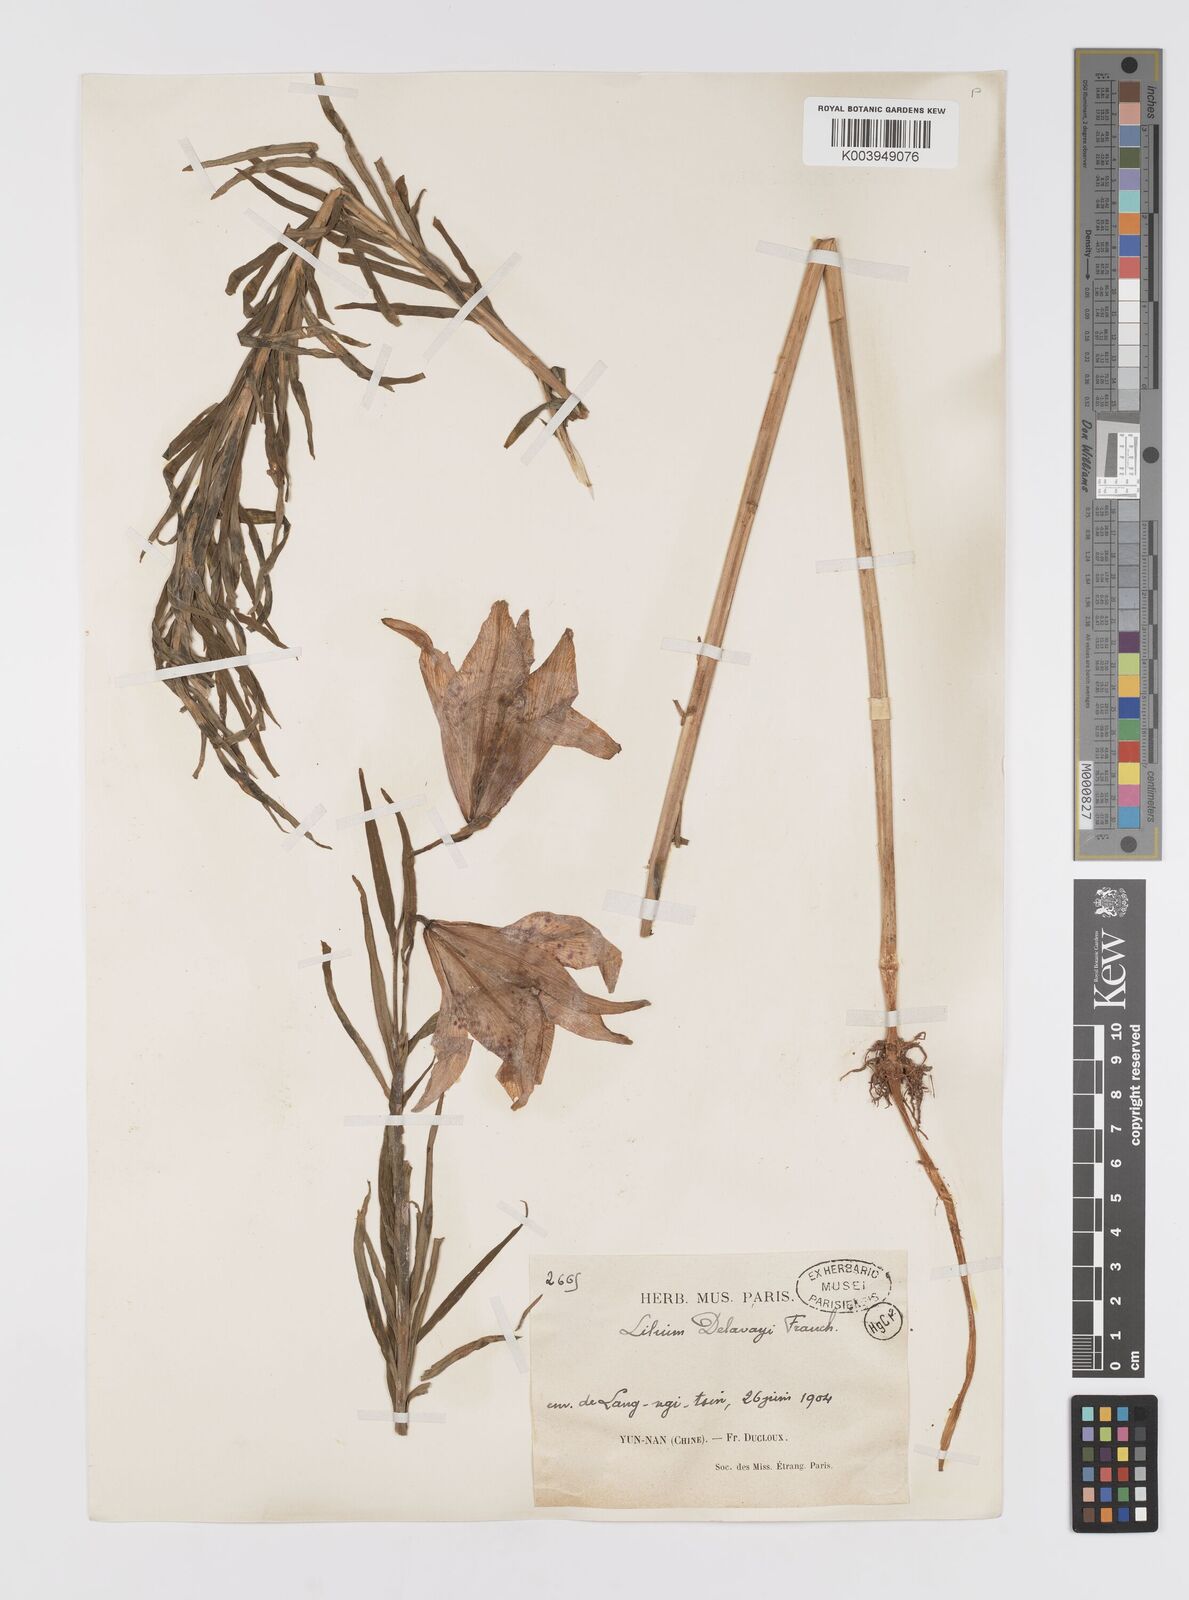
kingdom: Plantae
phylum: Tracheophyta
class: Liliopsida
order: Liliales
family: Liliaceae
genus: Lilium
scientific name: Lilium bakerianum
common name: Baker's lily
